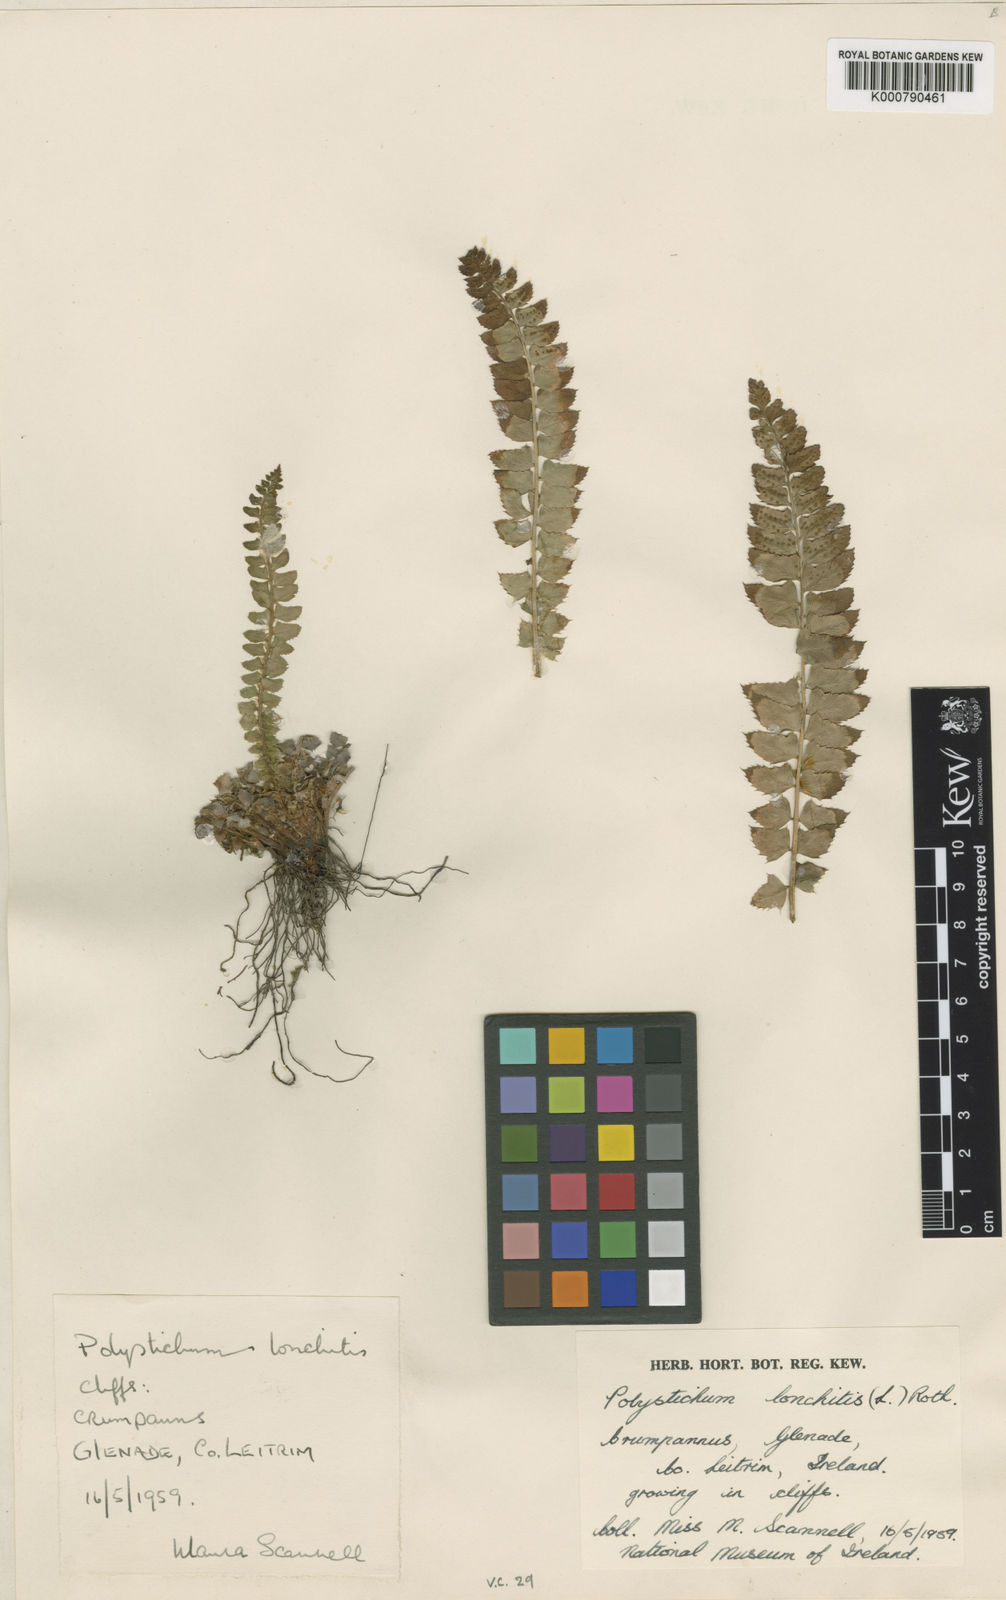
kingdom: Plantae
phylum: Tracheophyta
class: Polypodiopsida
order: Polypodiales
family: Dryopteridaceae
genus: Polystichum
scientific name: Polystichum
